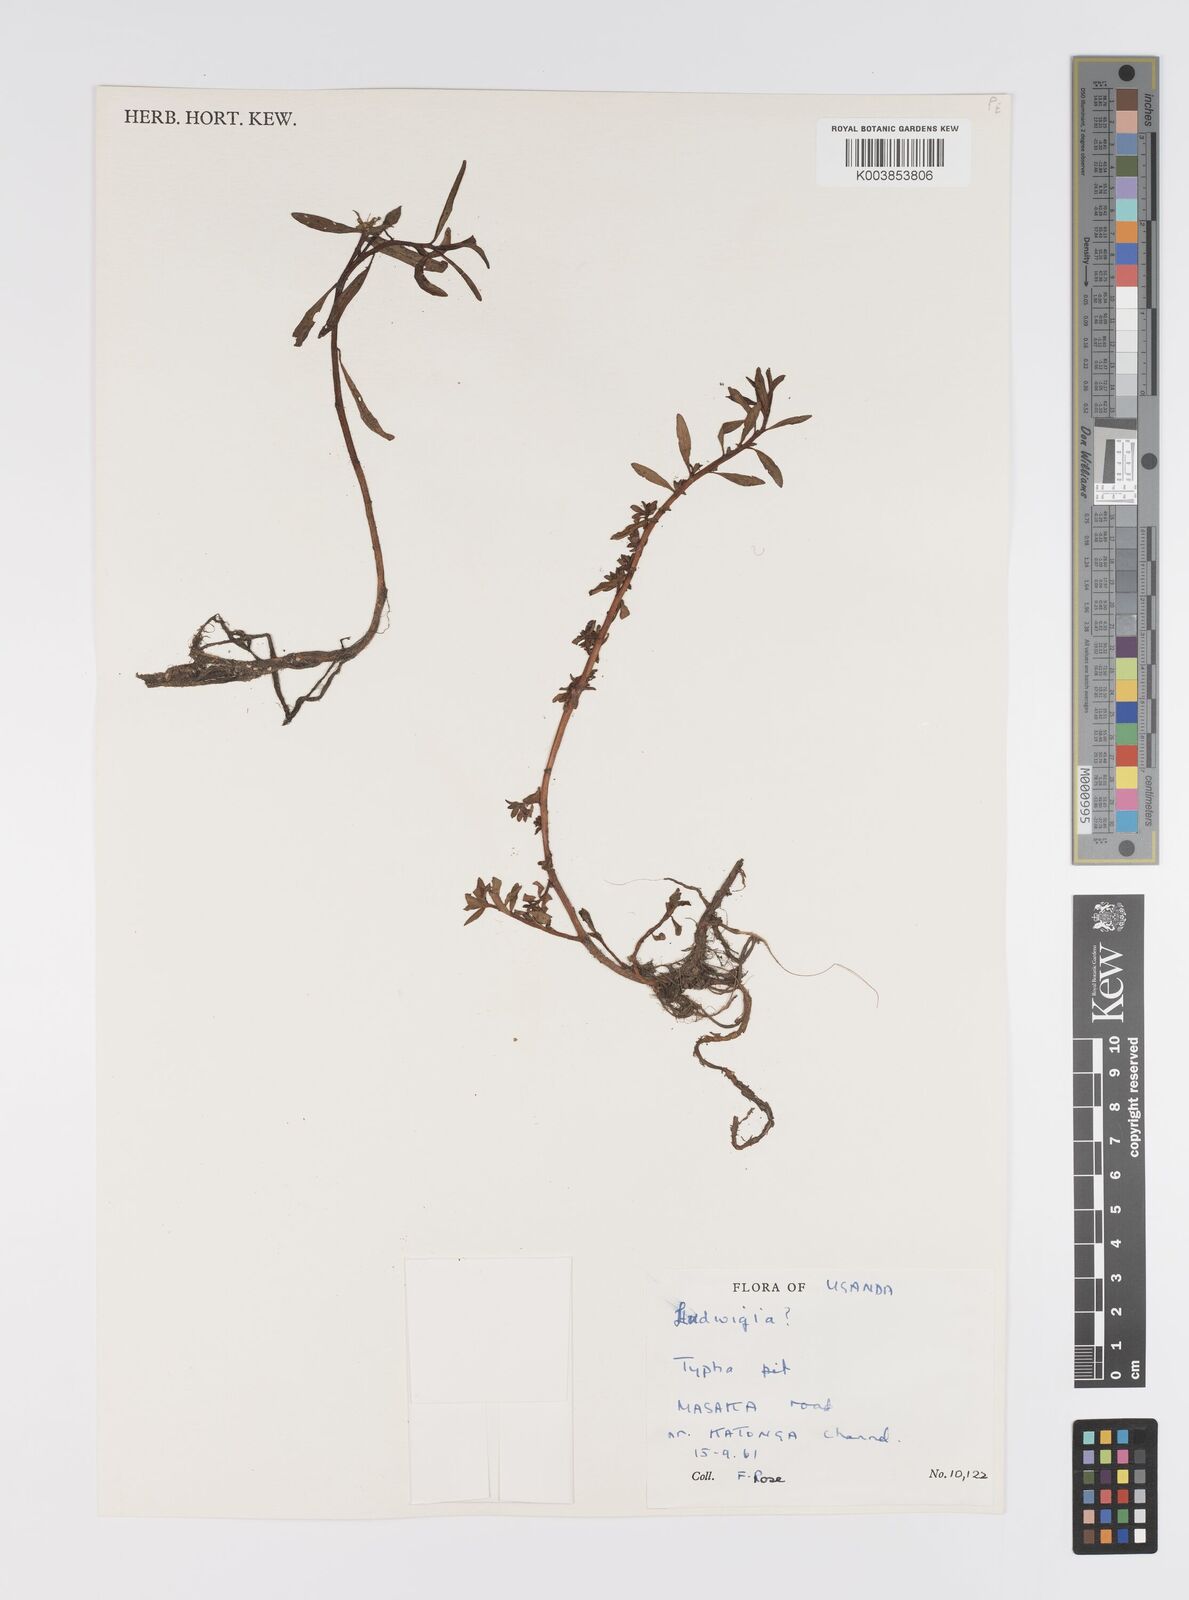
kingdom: Plantae
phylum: Tracheophyta
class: Magnoliopsida
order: Myrtales
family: Onagraceae
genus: Ludwigia
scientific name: Ludwigia
